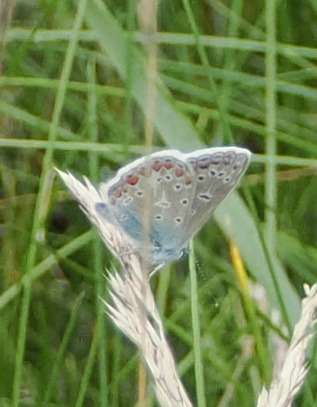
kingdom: Animalia
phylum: Arthropoda
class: Insecta
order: Lepidoptera
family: Lycaenidae
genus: Polyommatus
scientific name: Polyommatus icarus
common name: Almindelig blåfugl
